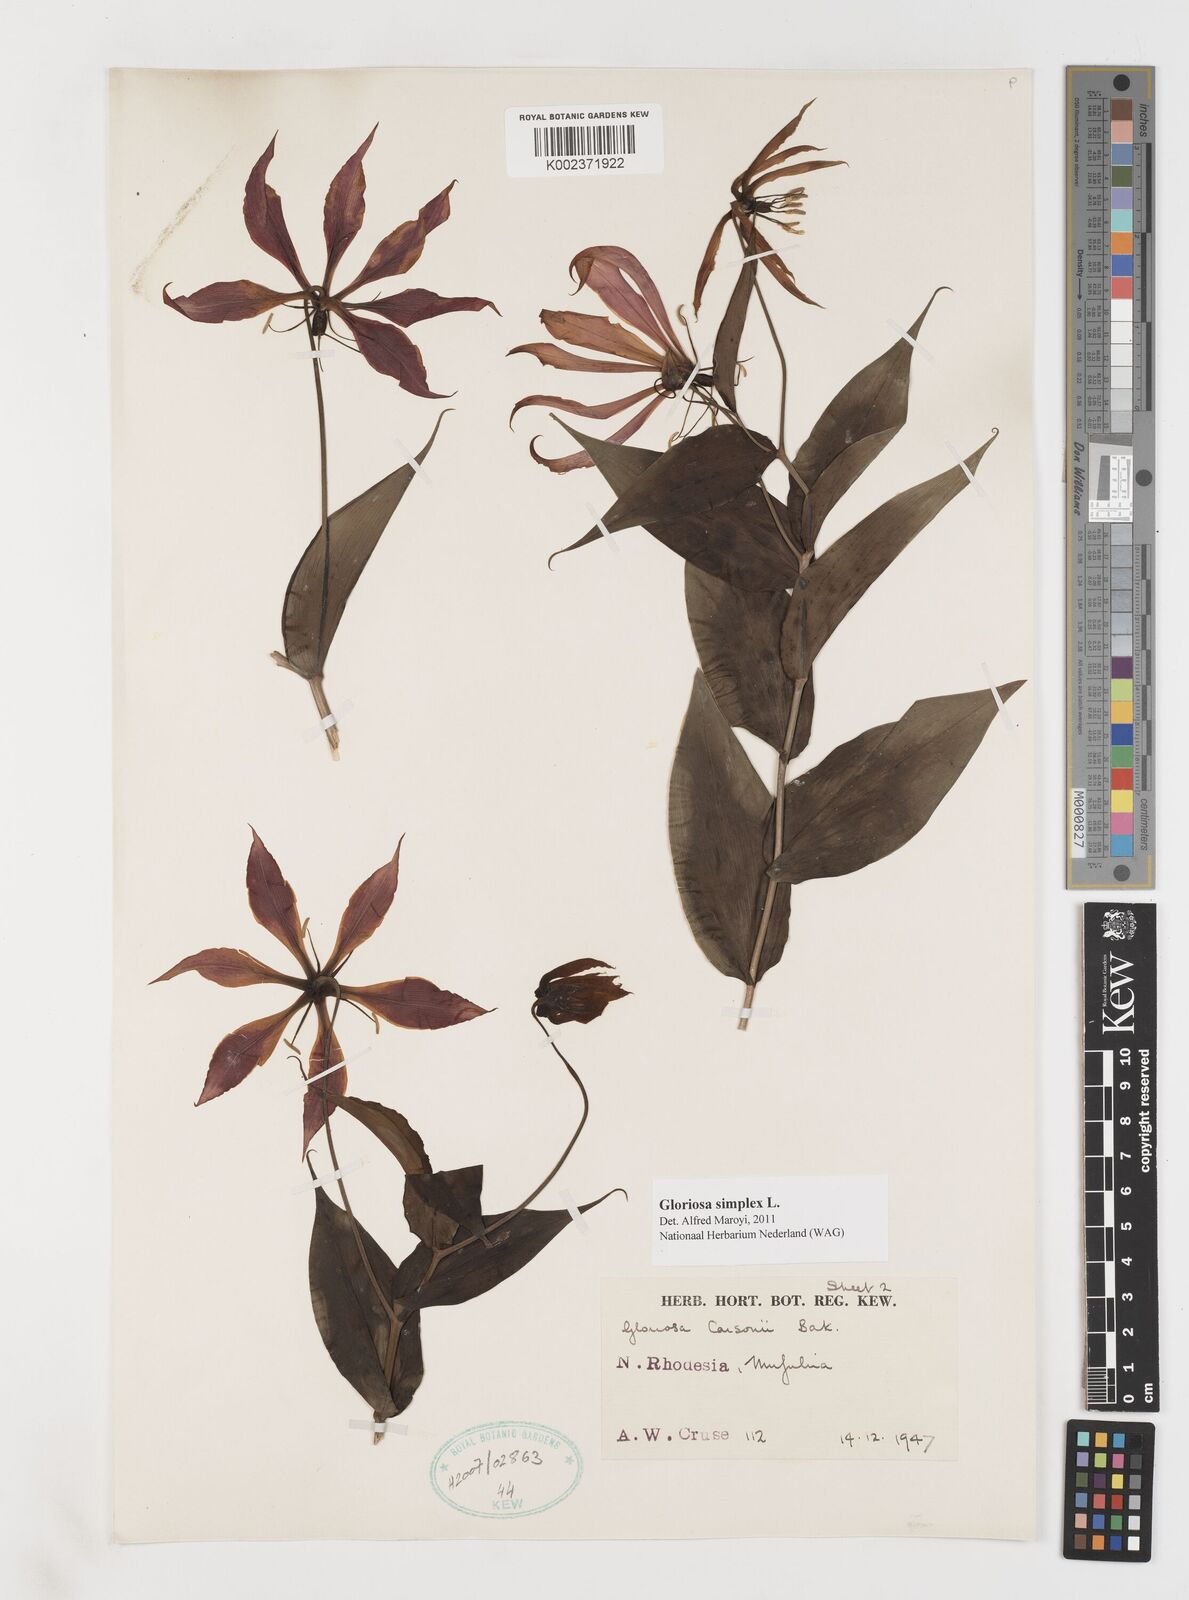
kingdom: Plantae
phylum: Tracheophyta
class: Liliopsida
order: Liliales
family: Colchicaceae
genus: Gloriosa
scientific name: Gloriosa simplex
